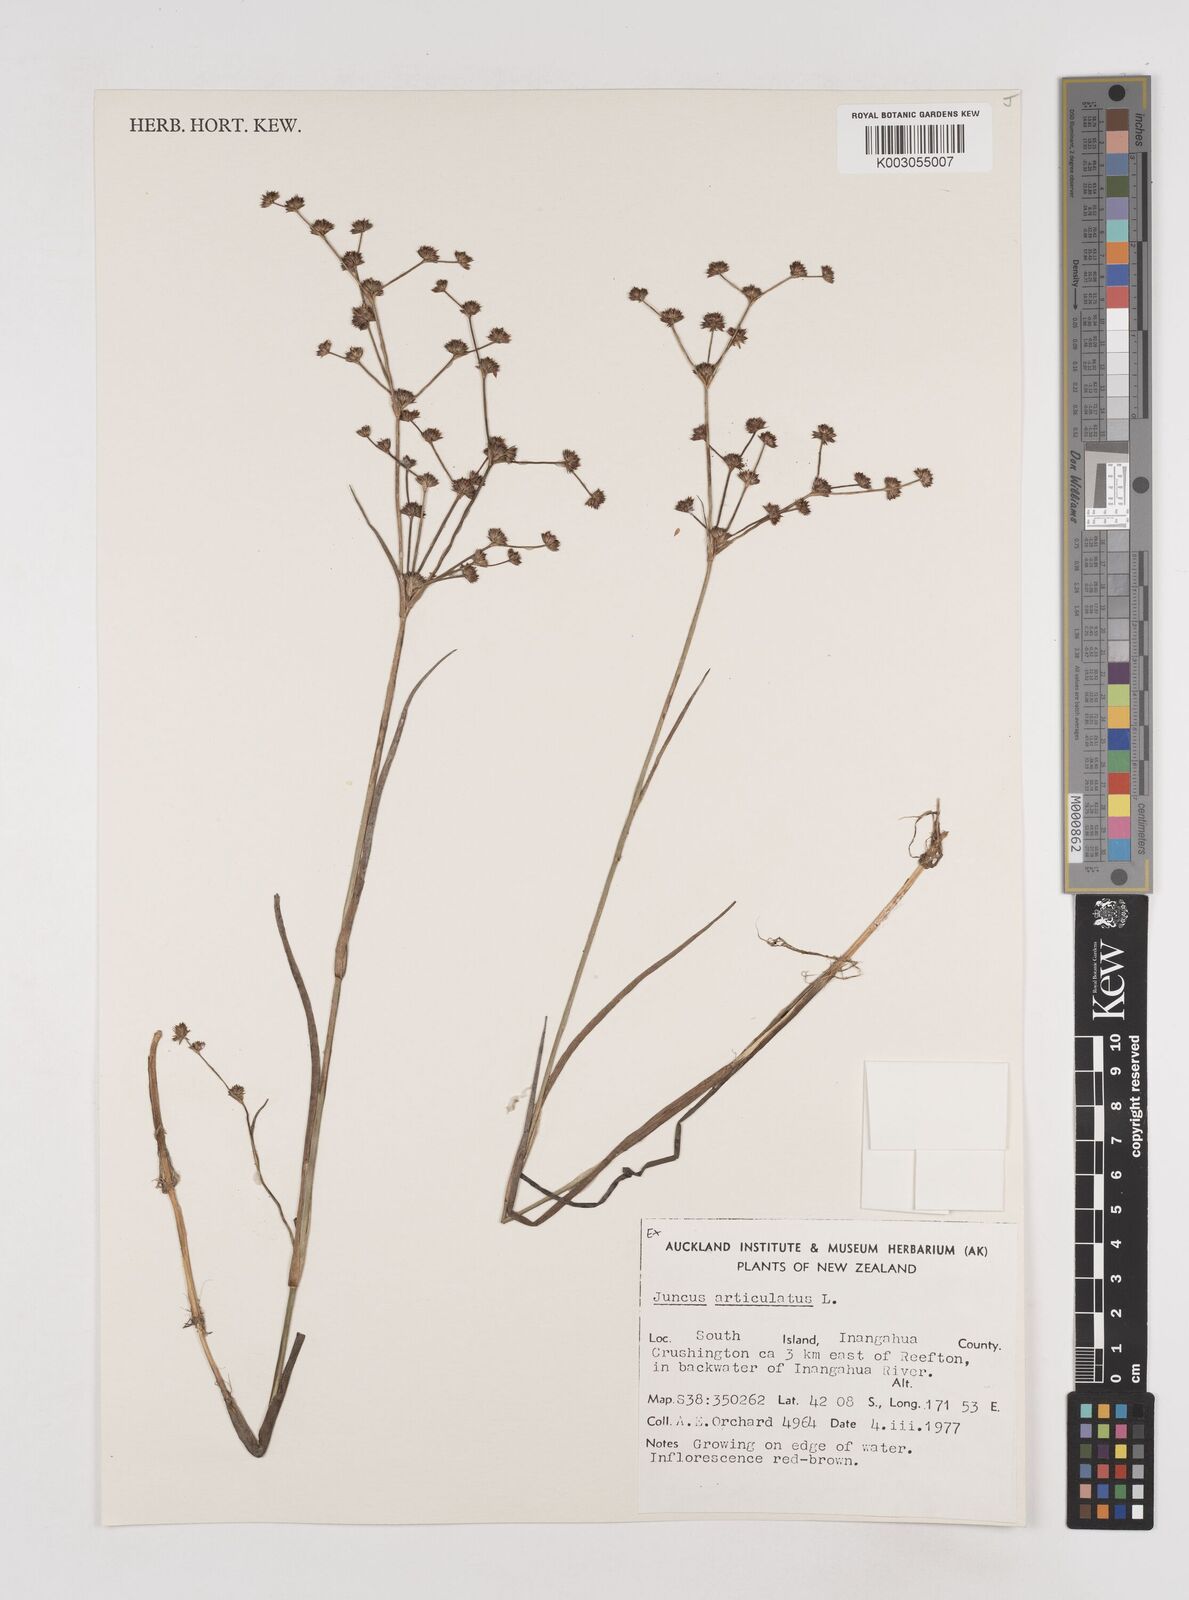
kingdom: Plantae
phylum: Tracheophyta
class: Liliopsida
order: Poales
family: Juncaceae
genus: Juncus
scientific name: Juncus articulatus
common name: Jointed rush
